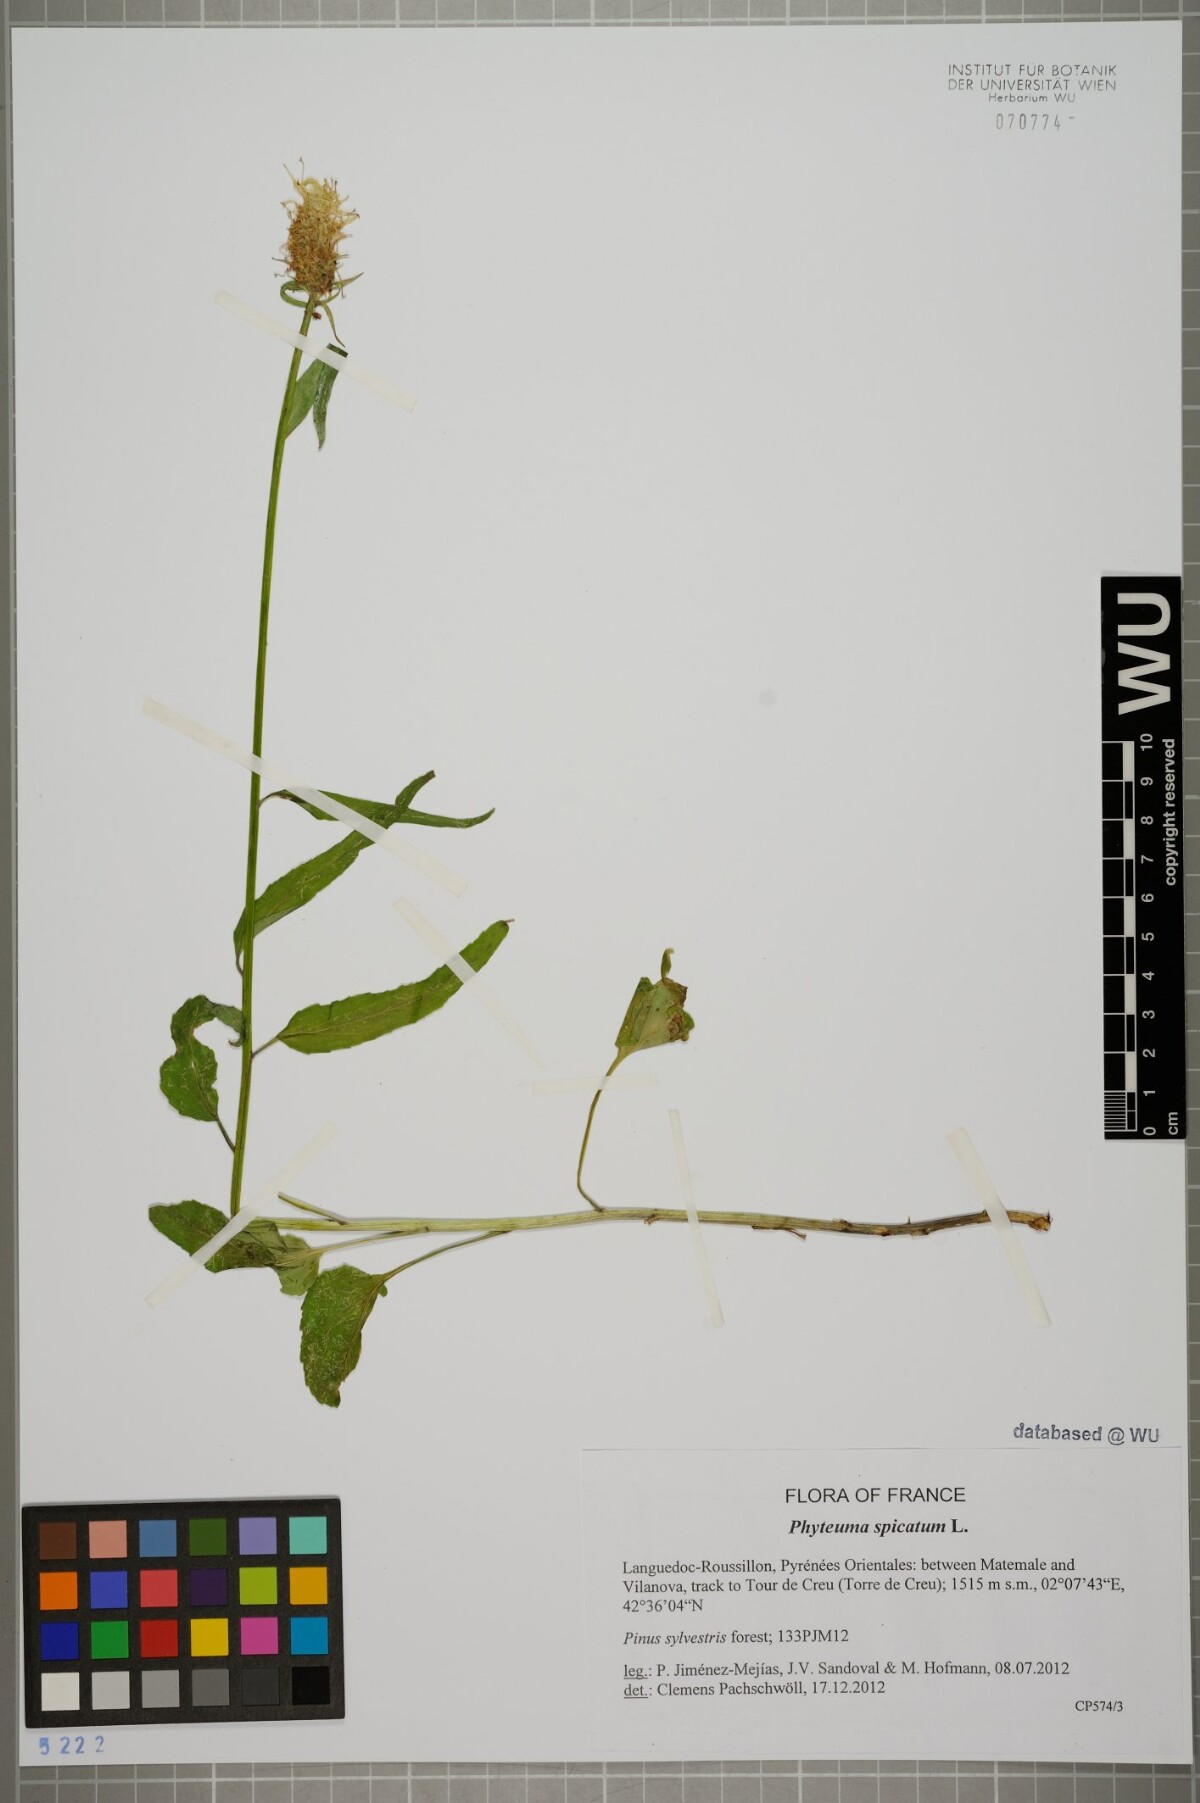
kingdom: Plantae
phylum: Tracheophyta
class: Magnoliopsida
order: Asterales
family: Campanulaceae
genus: Phyteuma
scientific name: Phyteuma spicatum
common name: Spiked rampion
